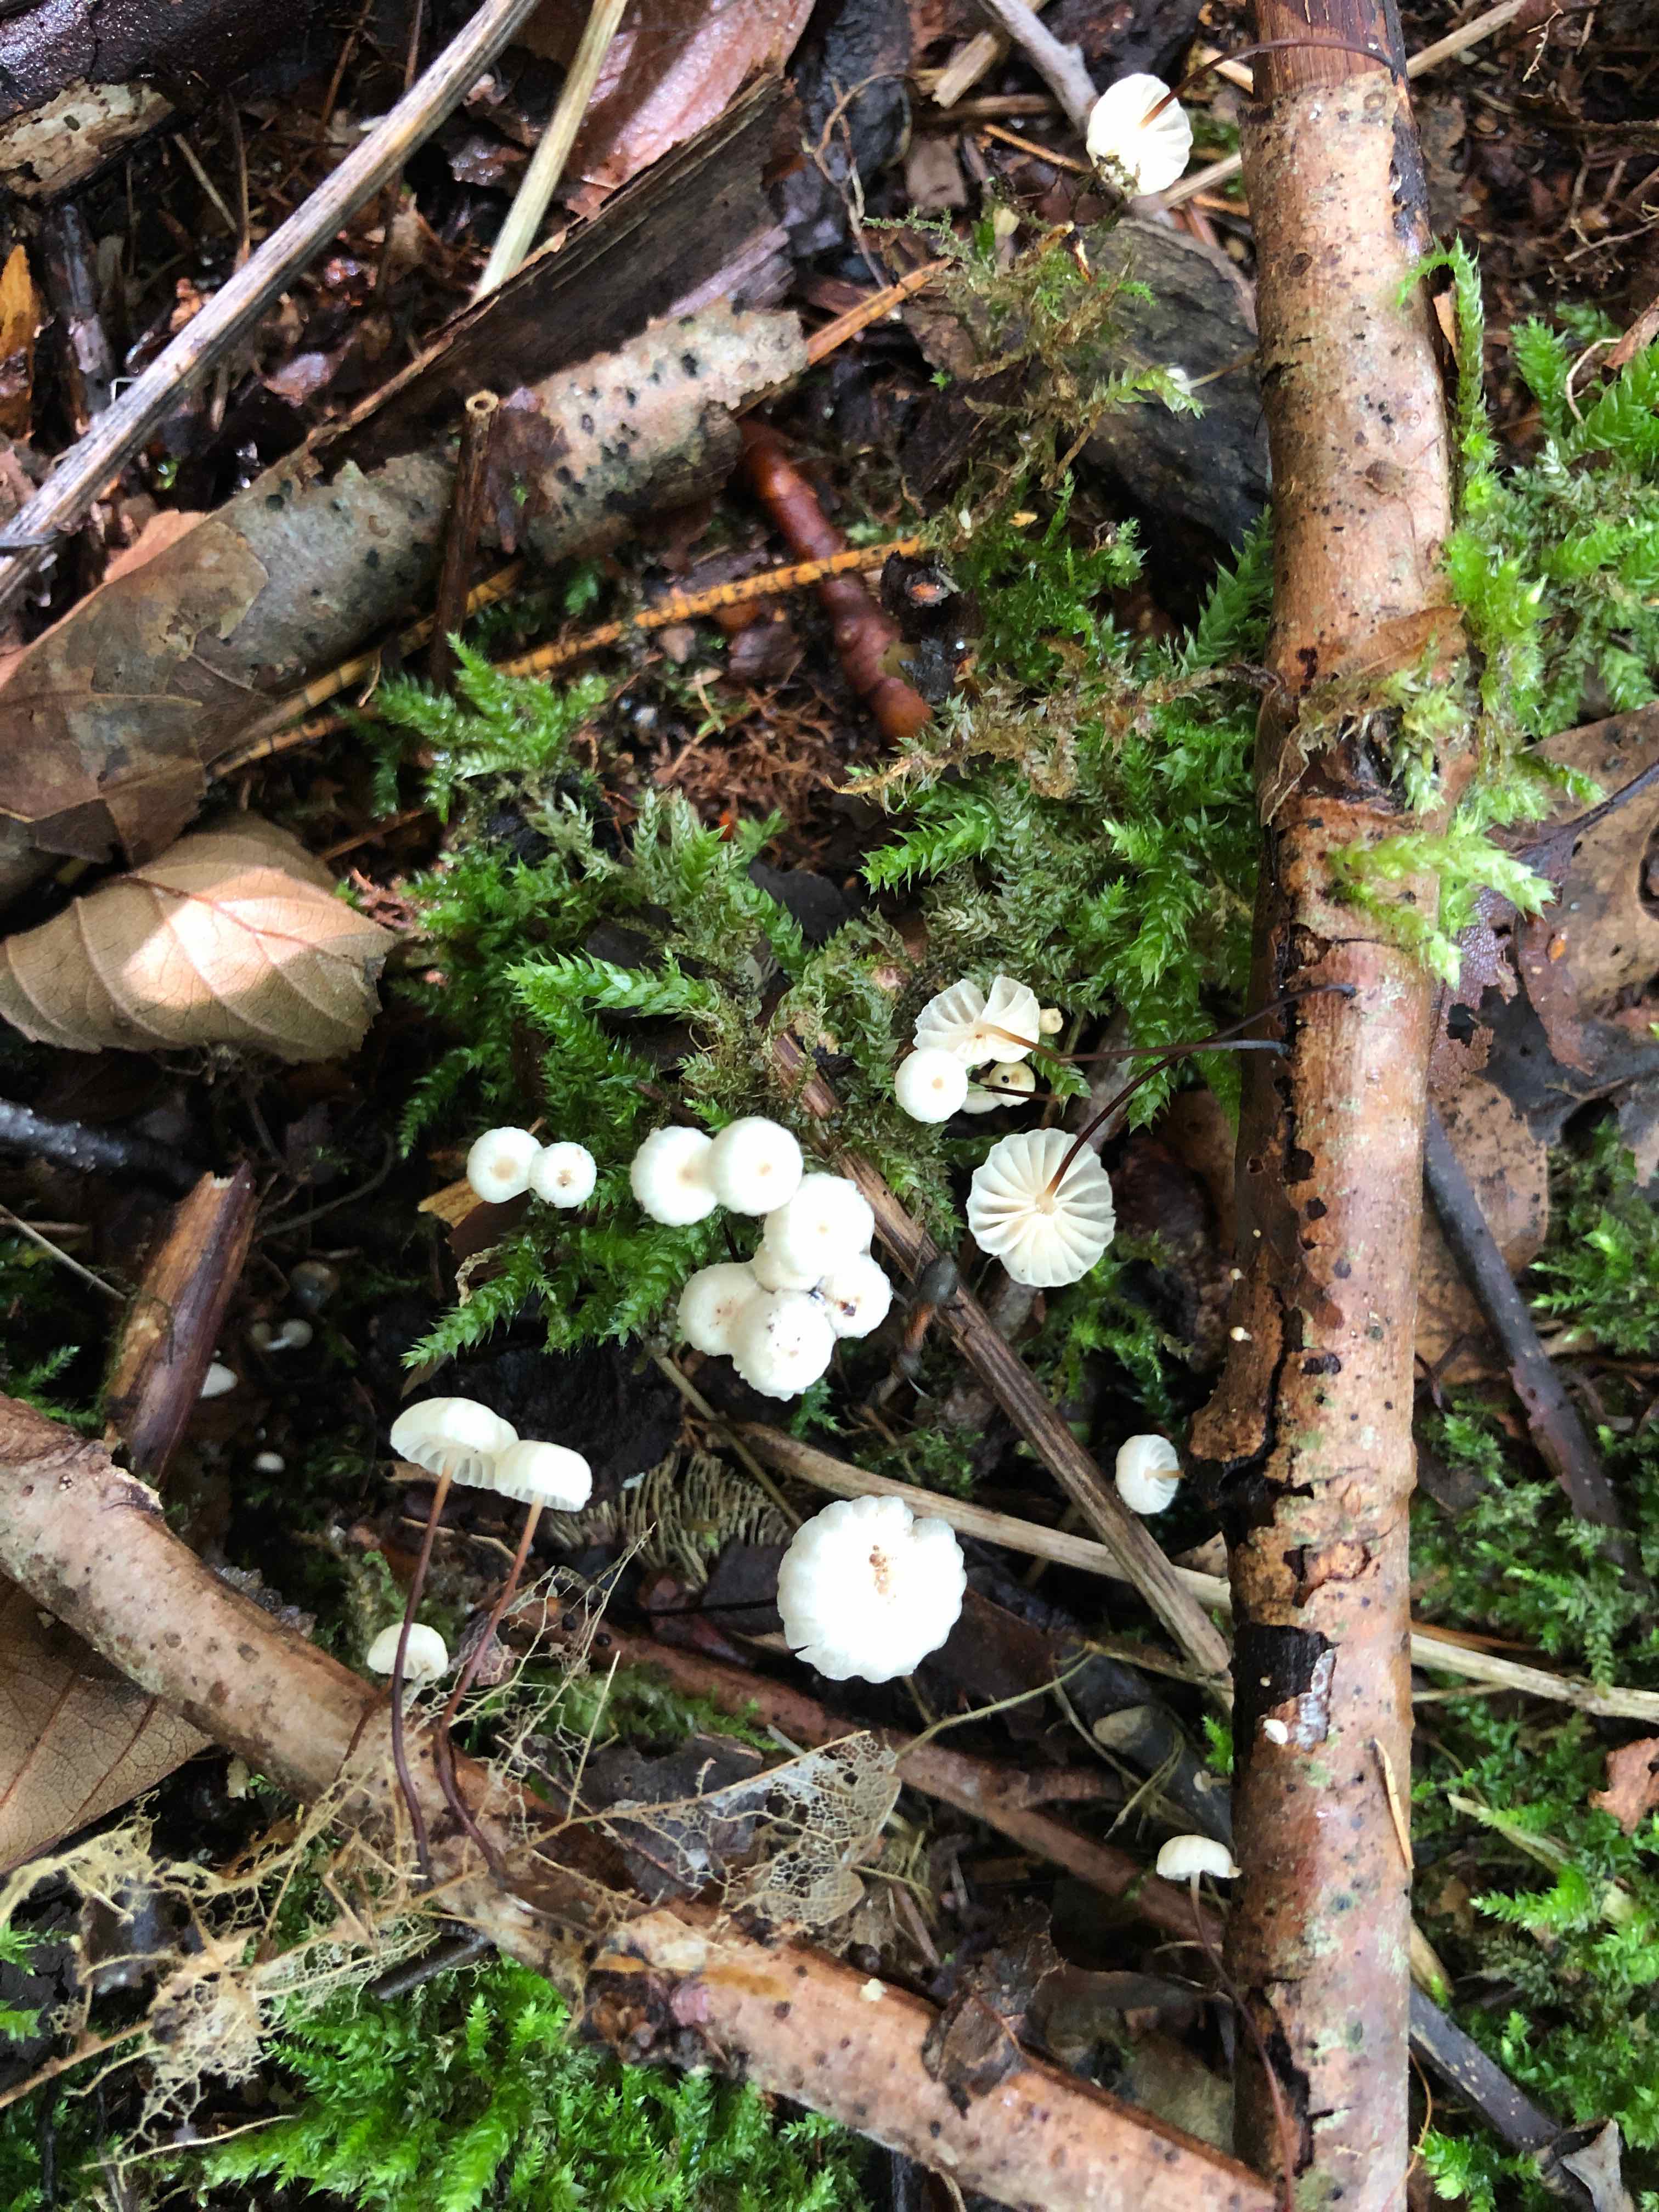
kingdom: Fungi
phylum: Basidiomycota
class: Agaricomycetes
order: Agaricales
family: Marasmiaceae
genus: Marasmius
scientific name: Marasmius rotula
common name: hjul-bruskhat
